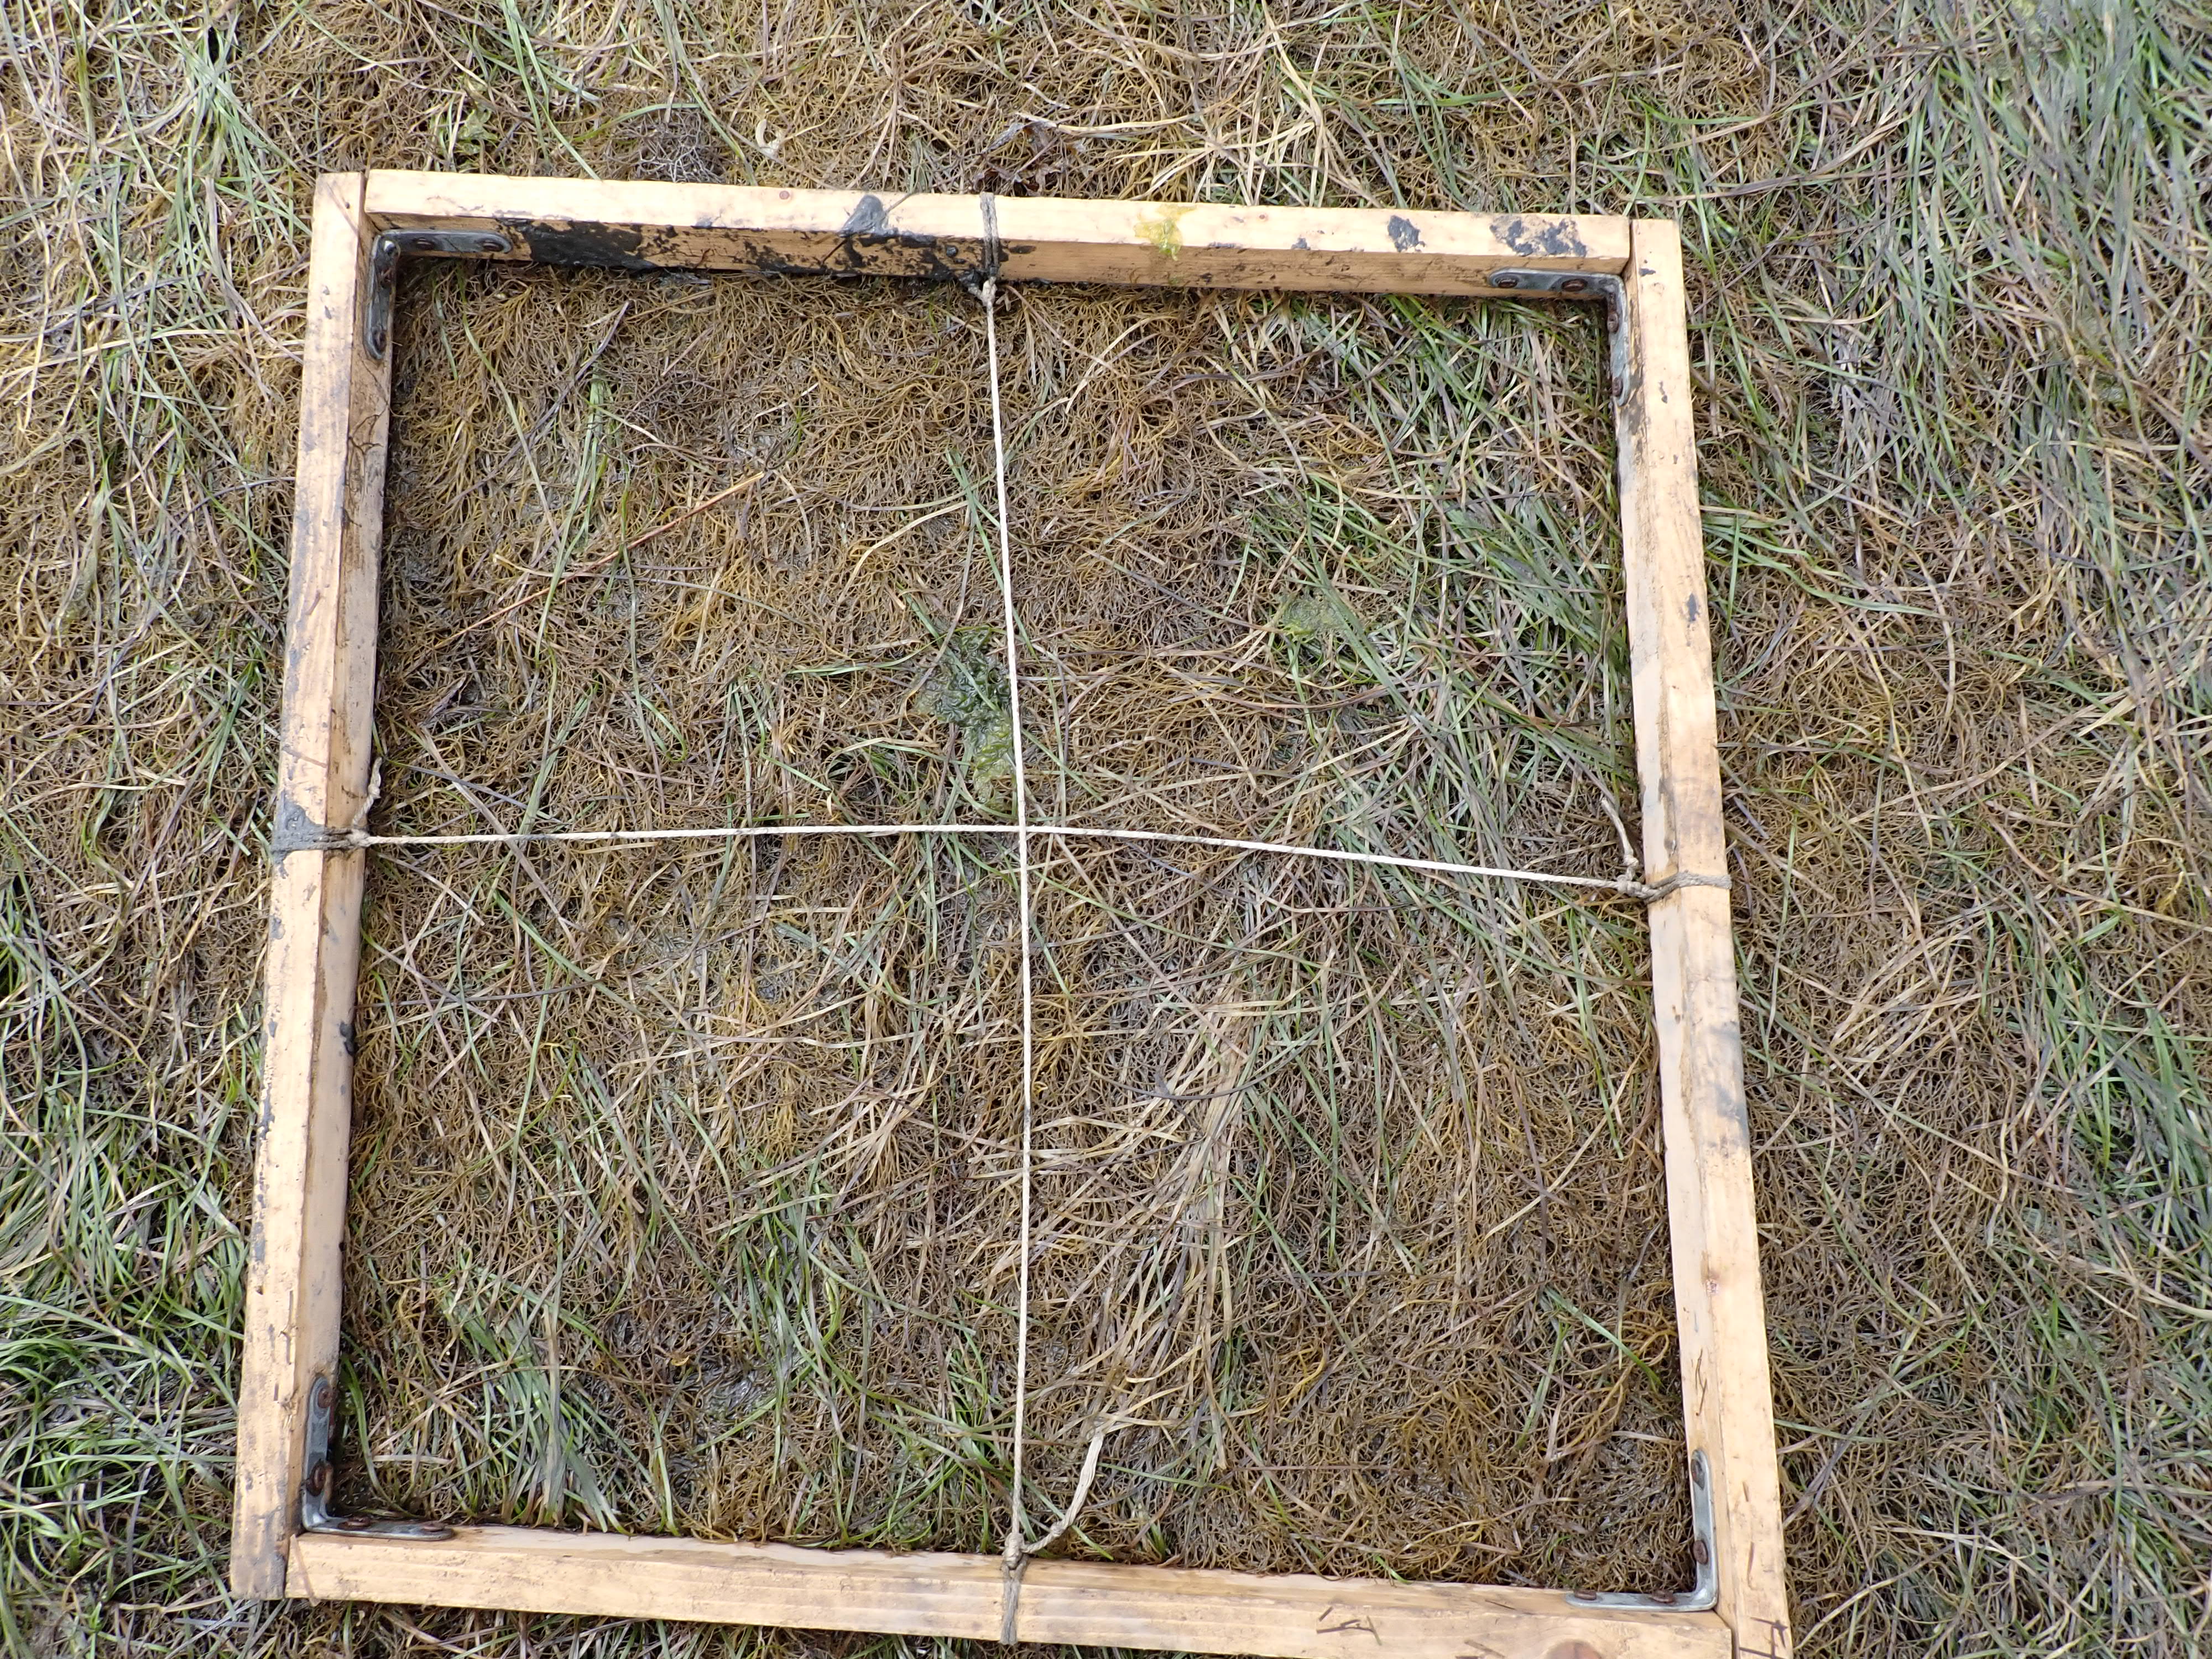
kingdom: Plantae
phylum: Rhodophyta
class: Florideophyceae
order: Gracilariales
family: Gracilariaceae
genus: Gracilaria
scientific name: Gracilaria vermiculophylla
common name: Algae
